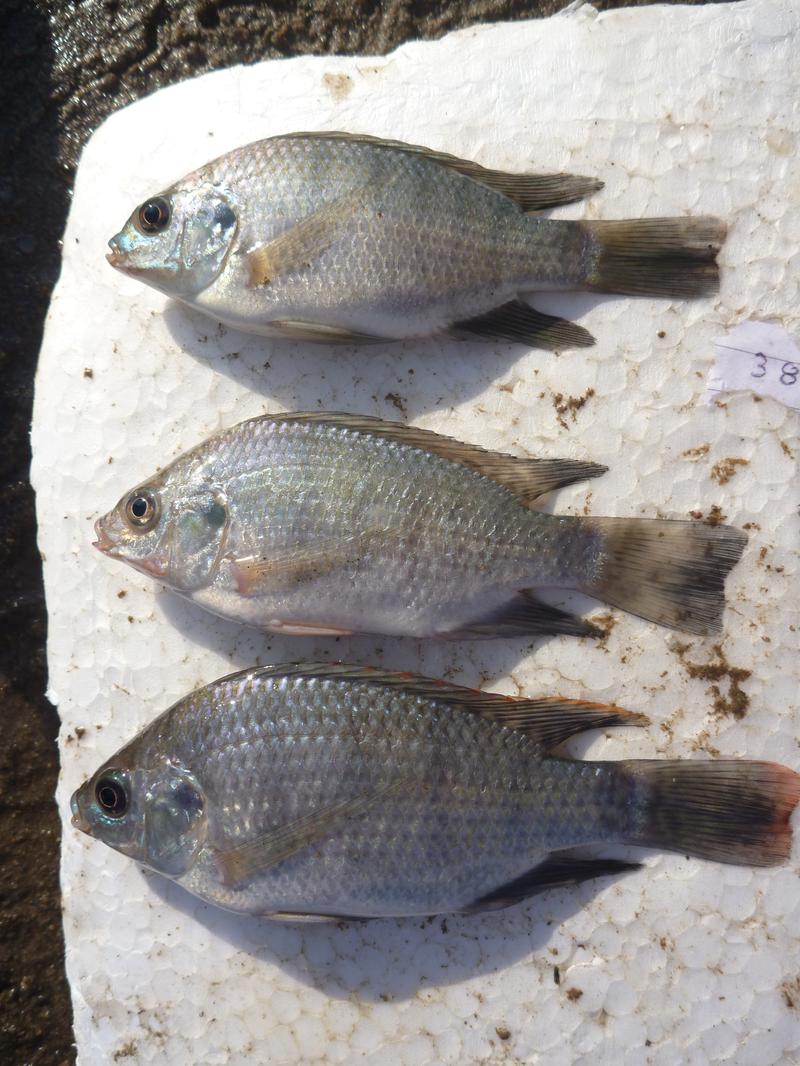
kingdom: Animalia
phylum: Chordata
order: Perciformes
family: Cichlidae
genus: Oreochromis
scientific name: Oreochromis rukwaensis
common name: Lake rukwa tilapia
